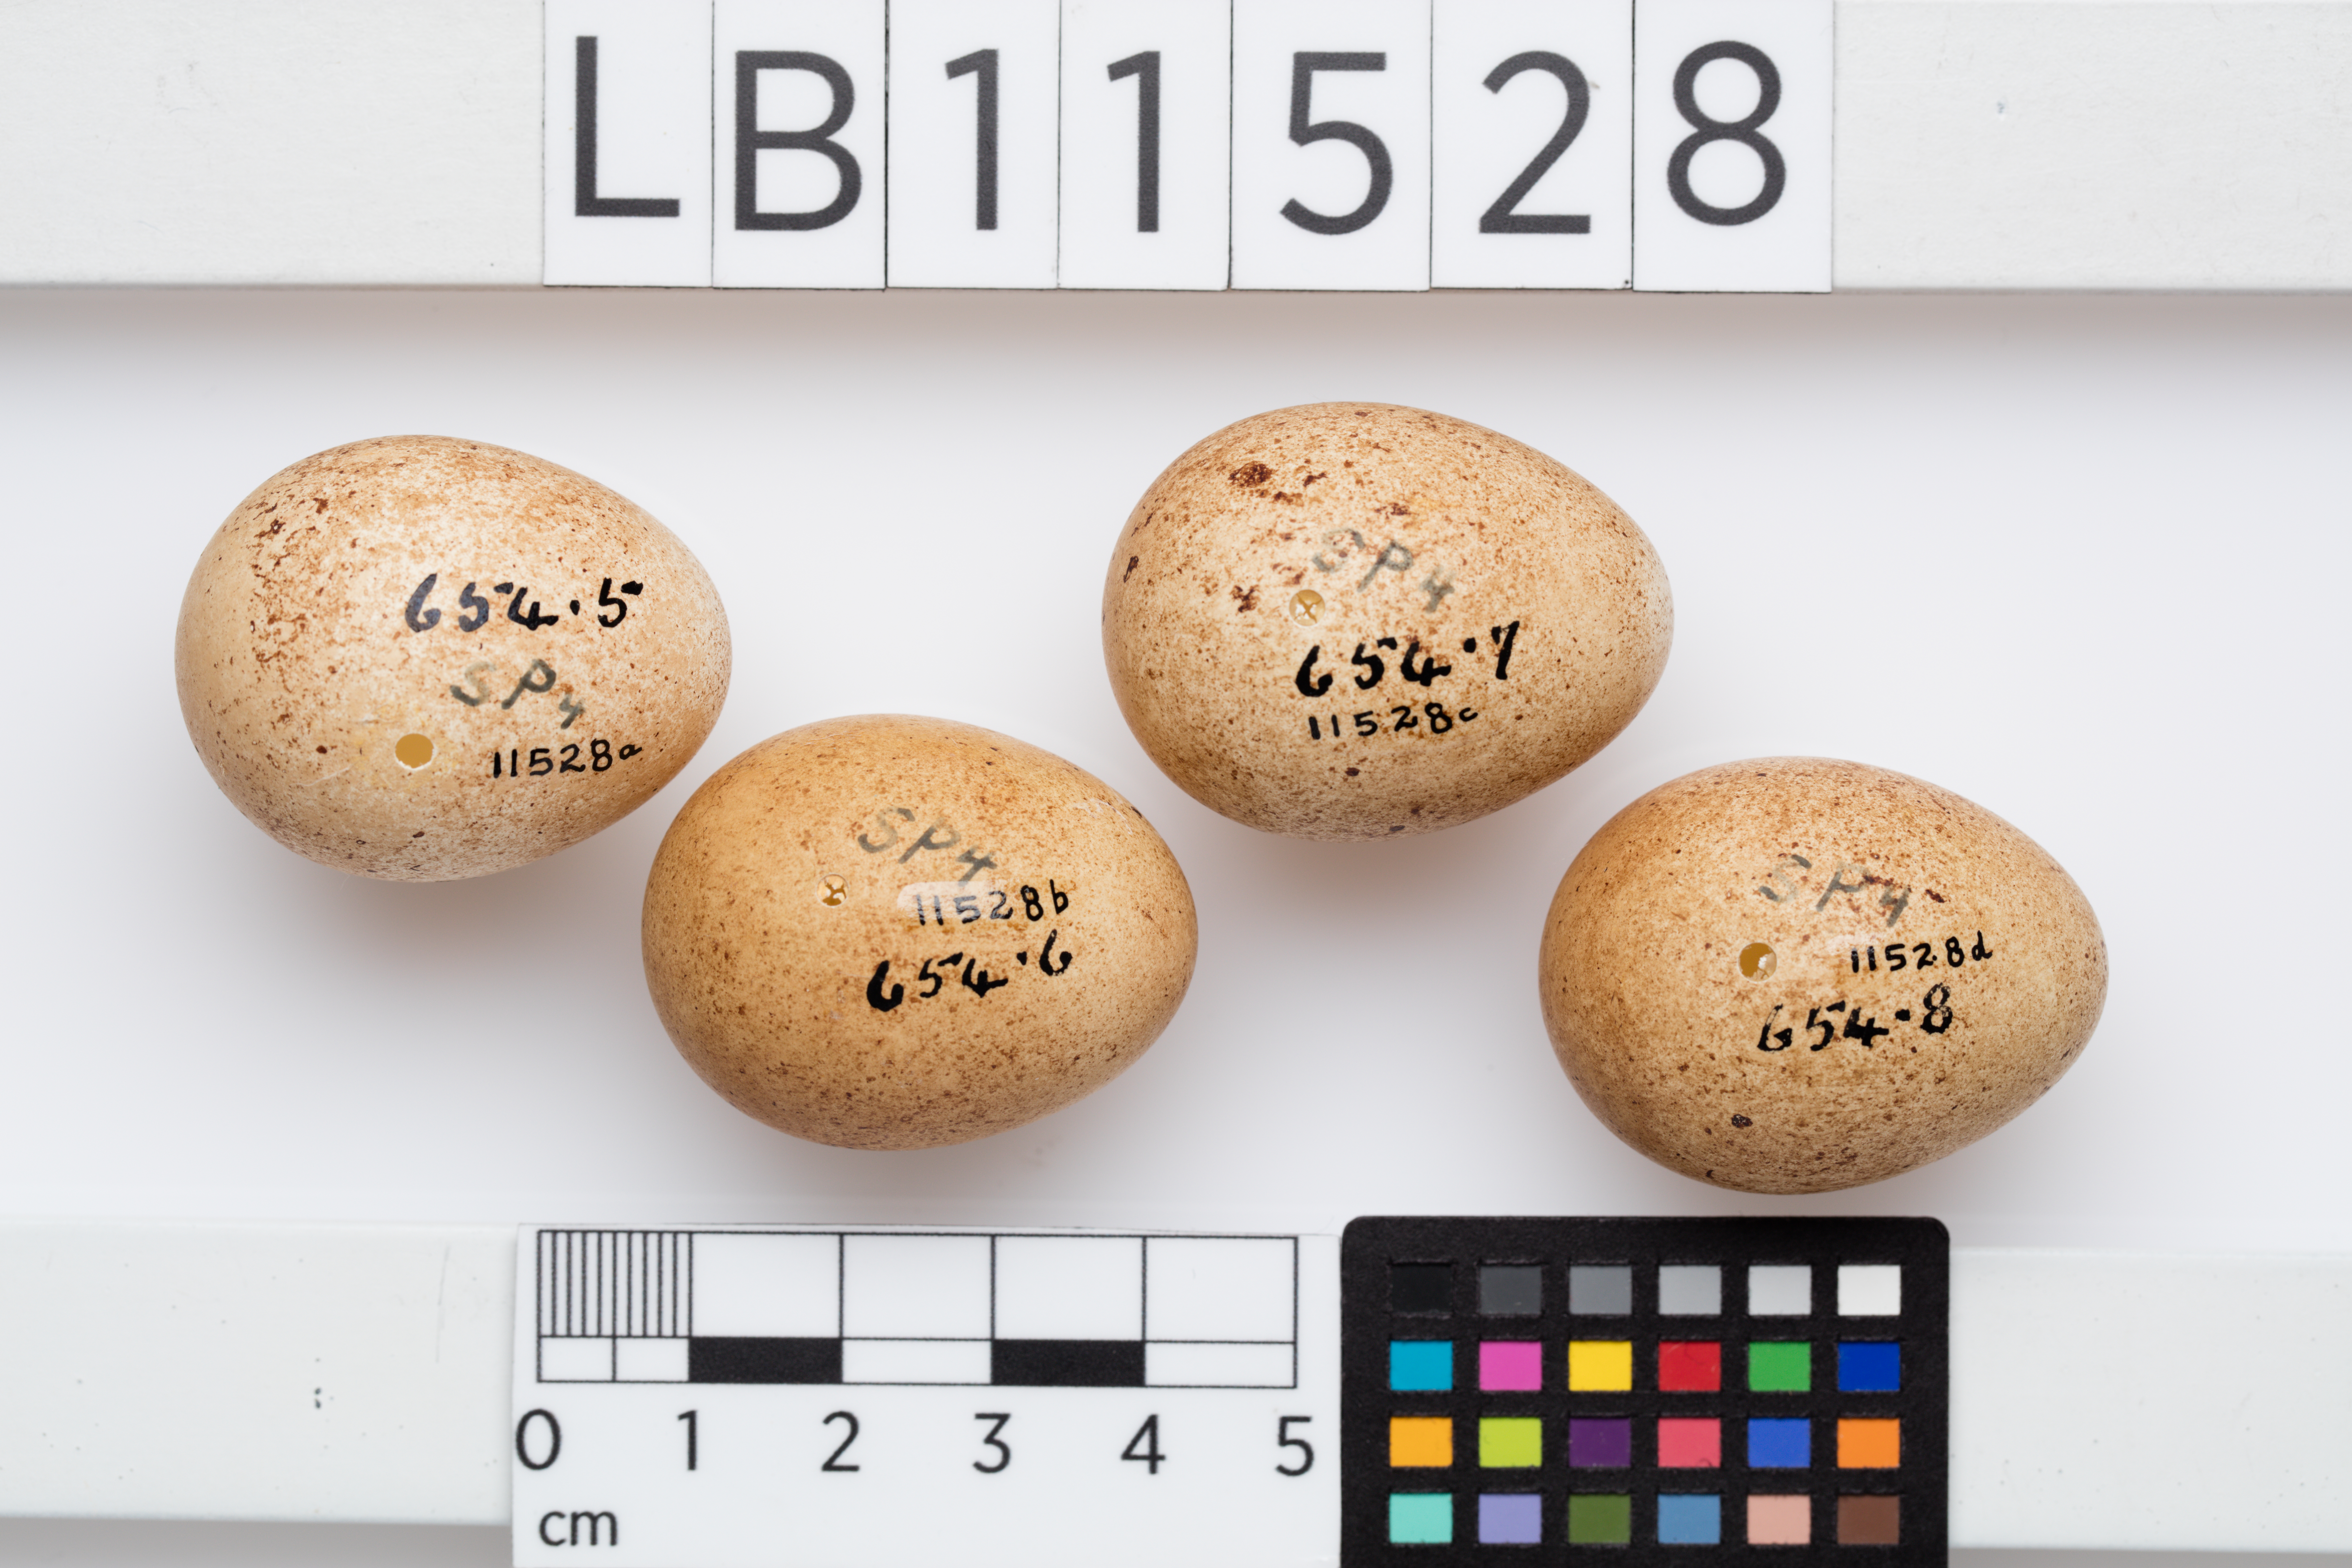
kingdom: Animalia
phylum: Chordata
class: Aves
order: Falconiformes
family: Falconidae
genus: Falco
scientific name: Falco sparverius
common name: American kestrel
